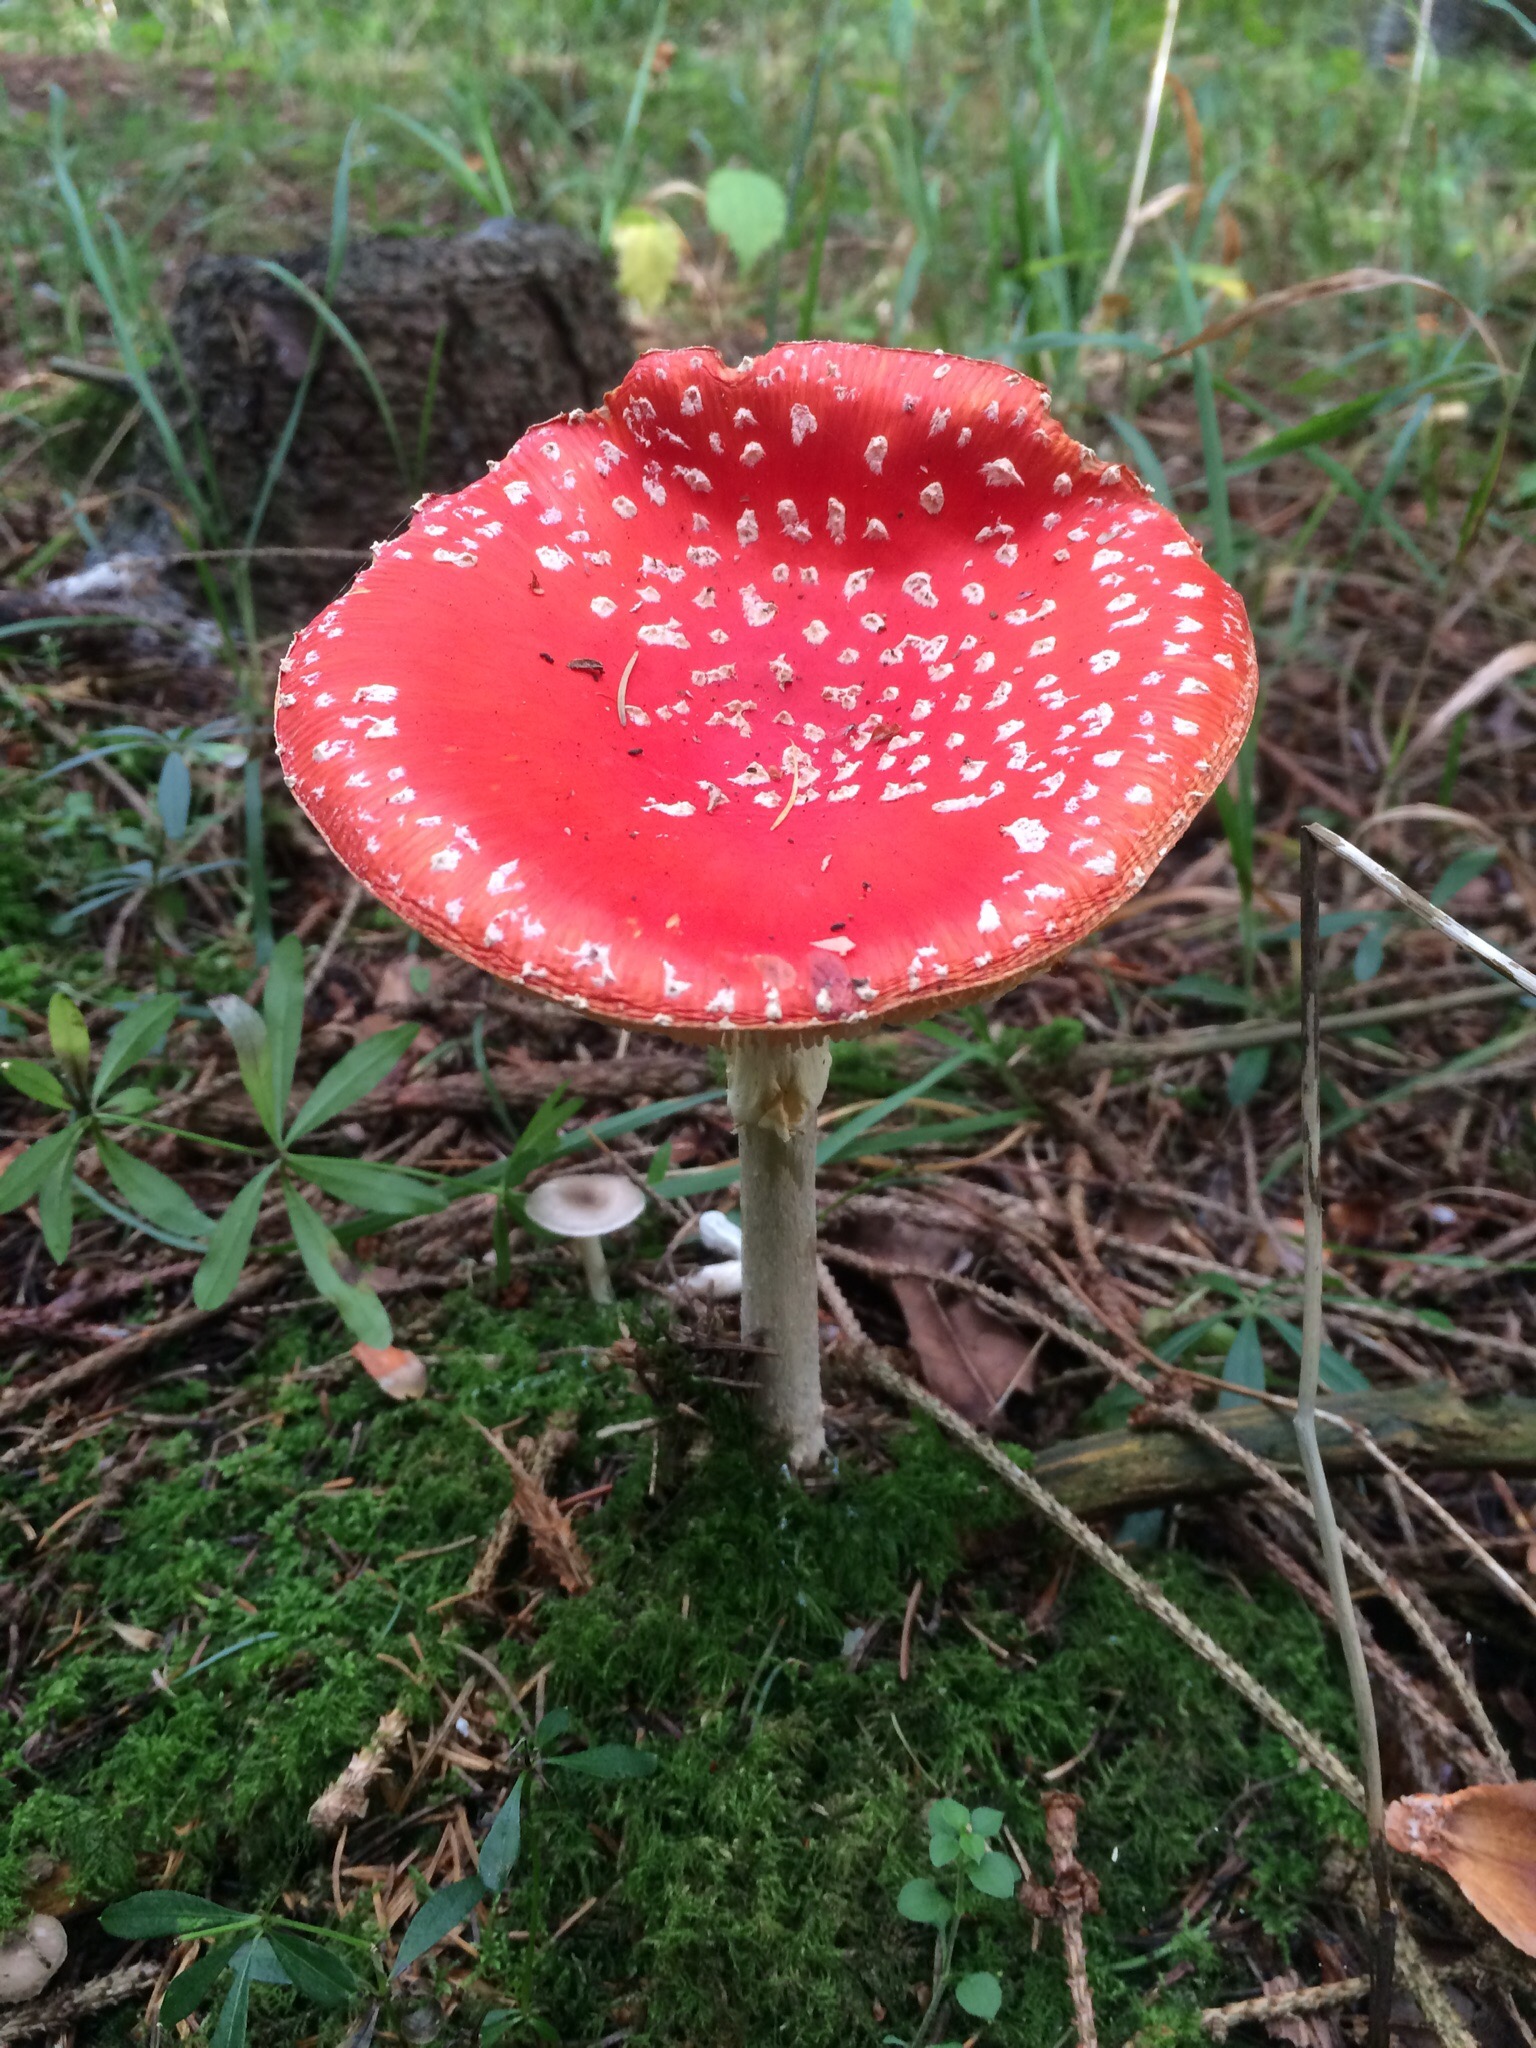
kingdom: Fungi
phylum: Basidiomycota
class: Agaricomycetes
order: Agaricales
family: Amanitaceae
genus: Amanita
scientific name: Amanita muscaria
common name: rød fluesvamp
